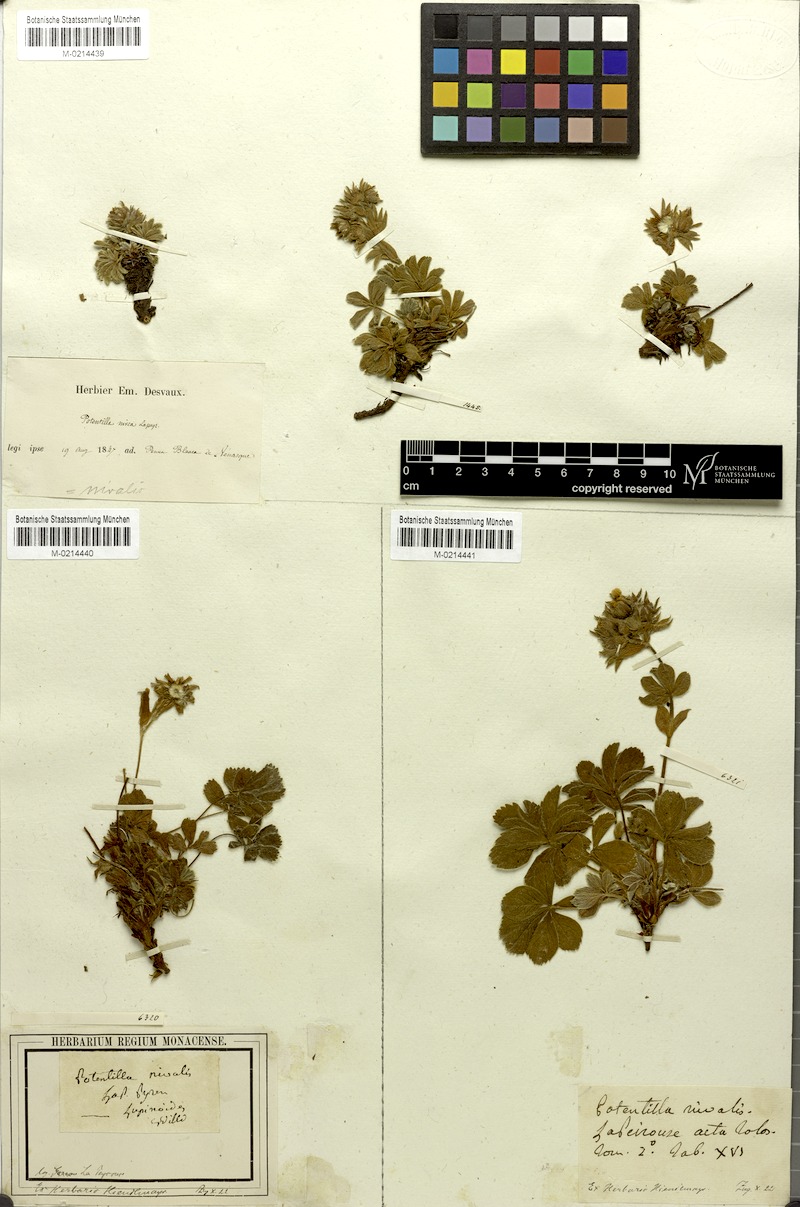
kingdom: Plantae
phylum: Tracheophyta
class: Magnoliopsida
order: Rosales
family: Rosaceae
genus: Potentilla
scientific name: Potentilla nivalis
